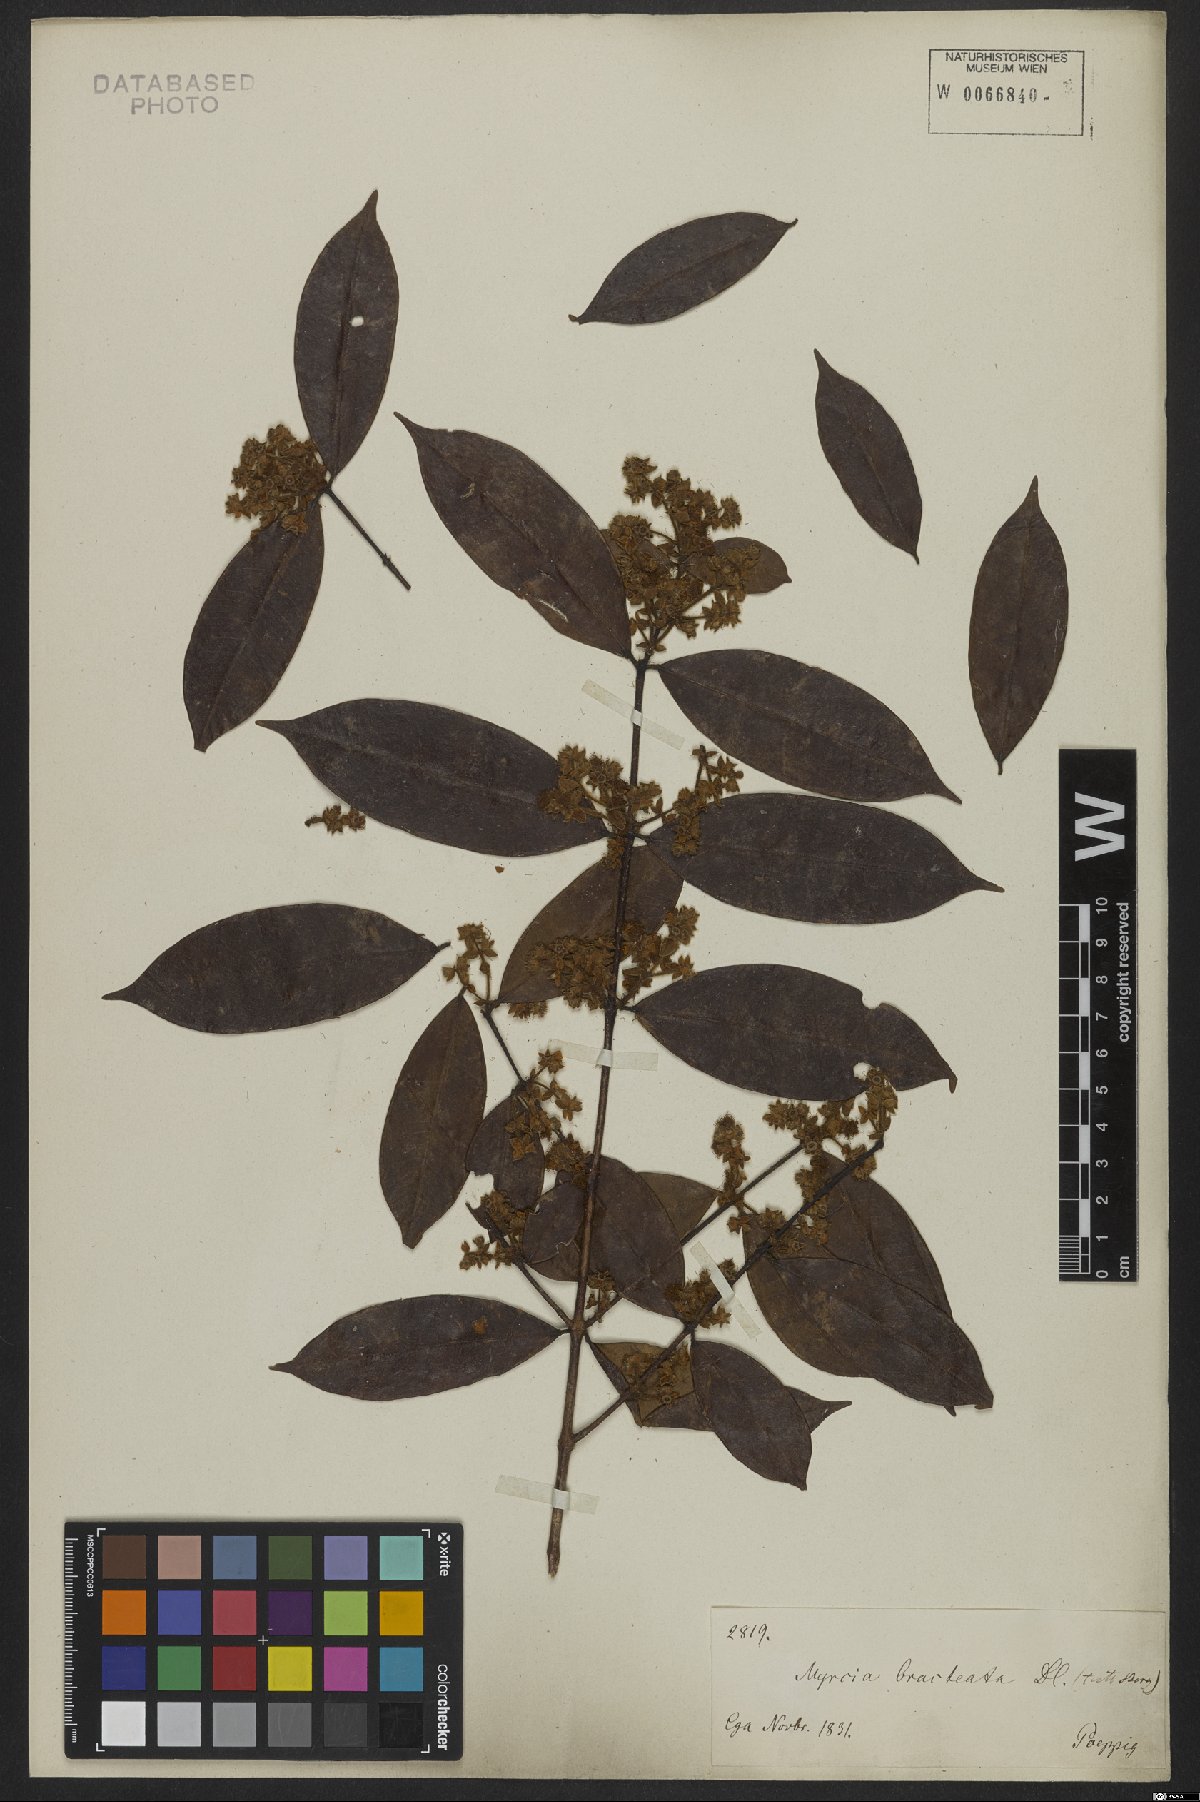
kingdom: Plantae
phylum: Tracheophyta
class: Magnoliopsida
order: Myrtales
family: Myrtaceae
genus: Myrcia
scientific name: Myrcia bracteata
